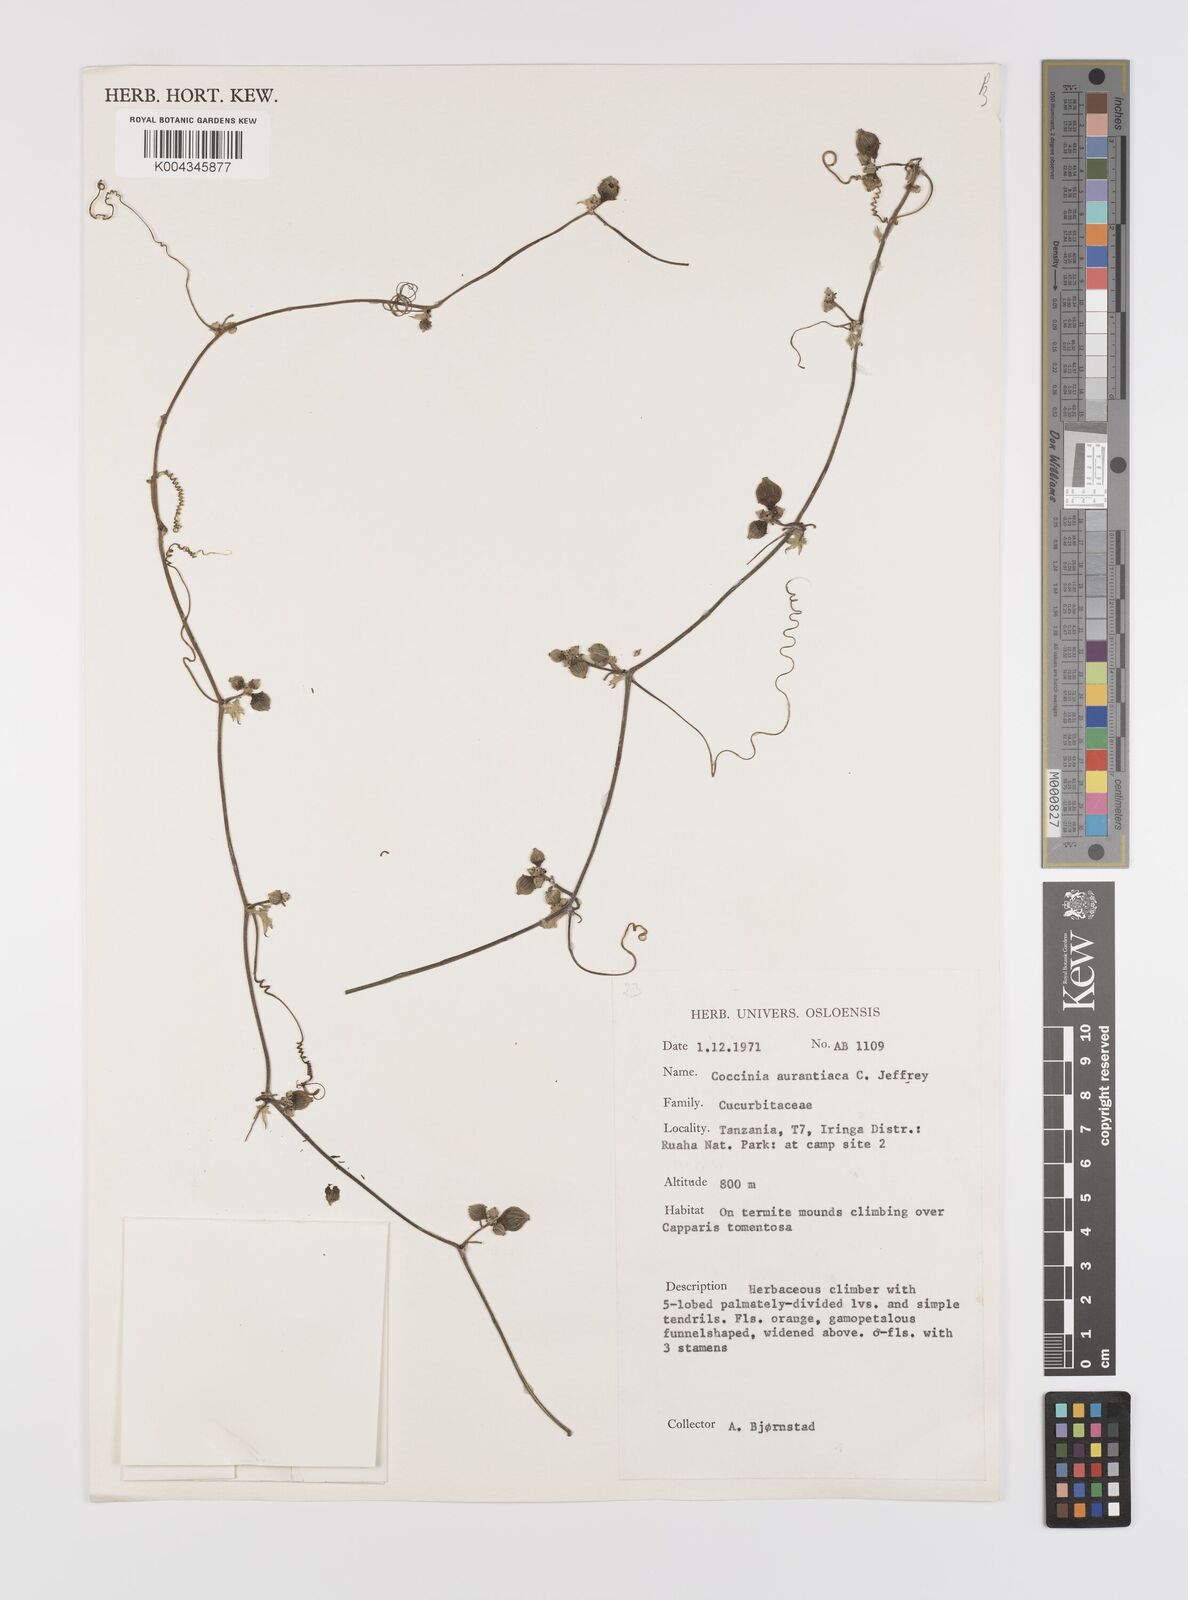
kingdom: Plantae
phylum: Tracheophyta
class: Magnoliopsida
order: Cucurbitales
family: Cucurbitaceae
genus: Coccinia
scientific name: Coccinia adoensis
